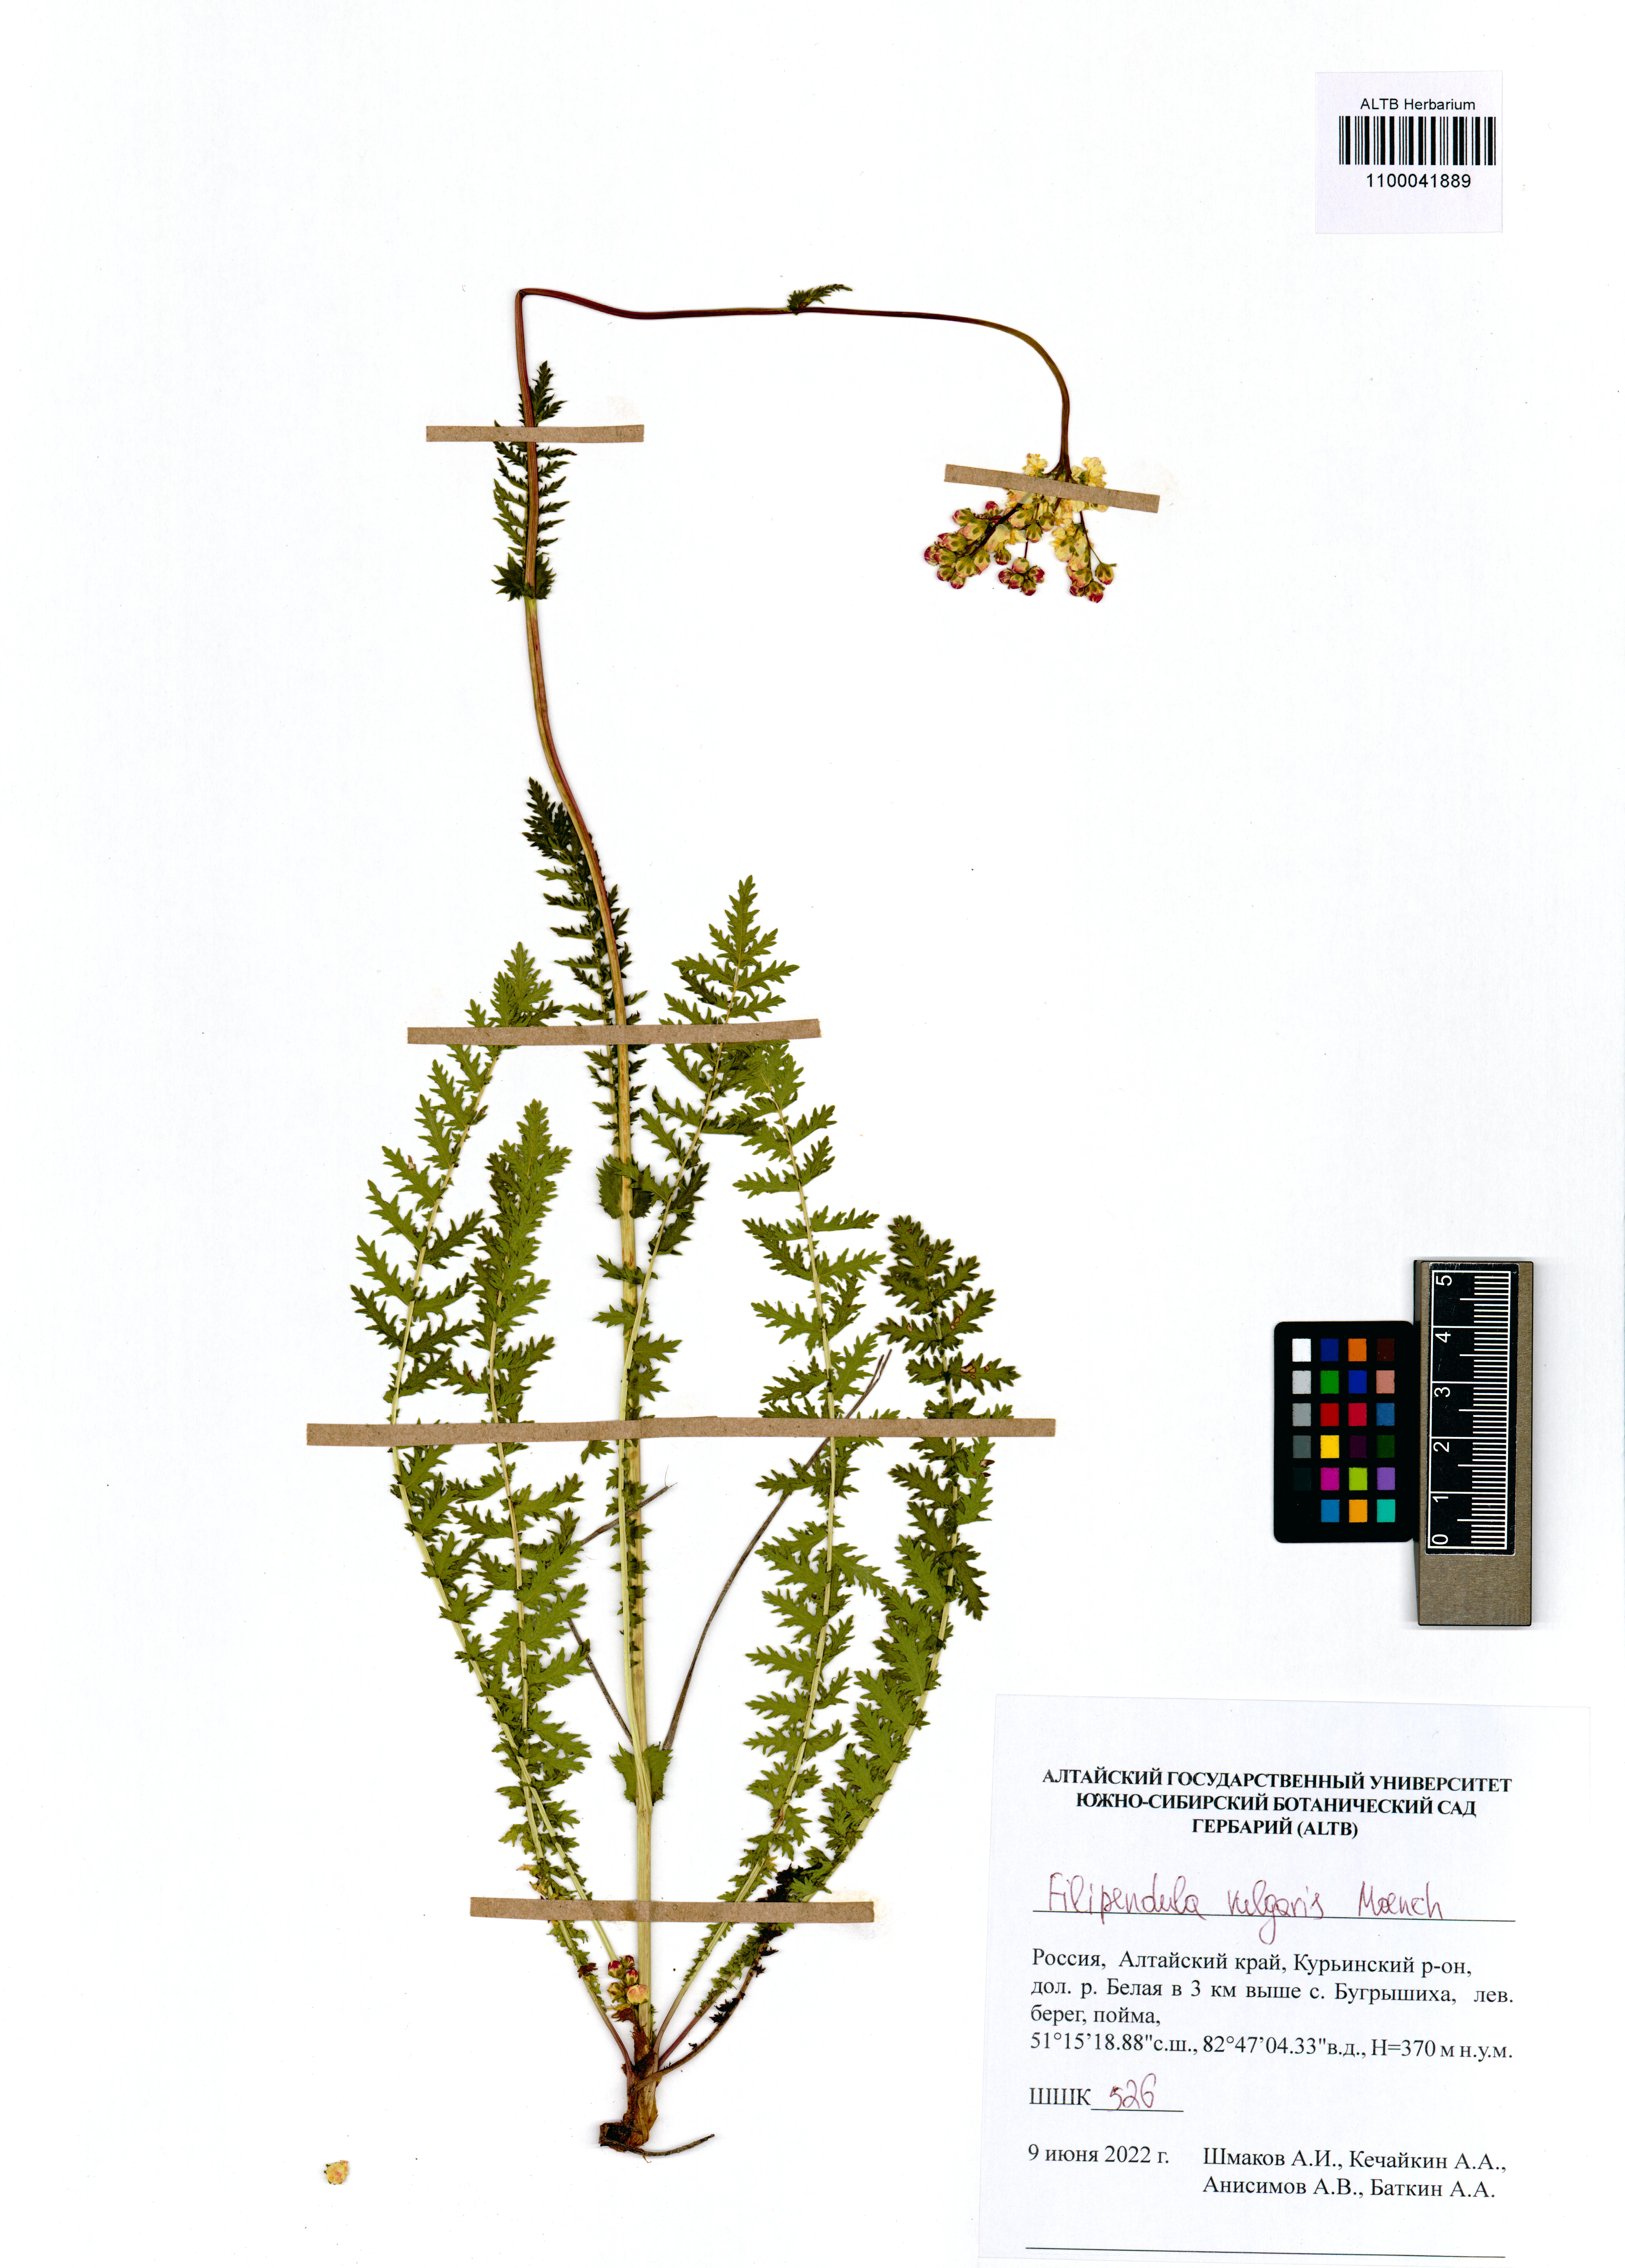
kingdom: Plantae
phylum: Tracheophyta
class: Magnoliopsida
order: Rosales
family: Rosaceae
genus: Filipendula
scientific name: Filipendula vulgaris
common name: Dropwort
